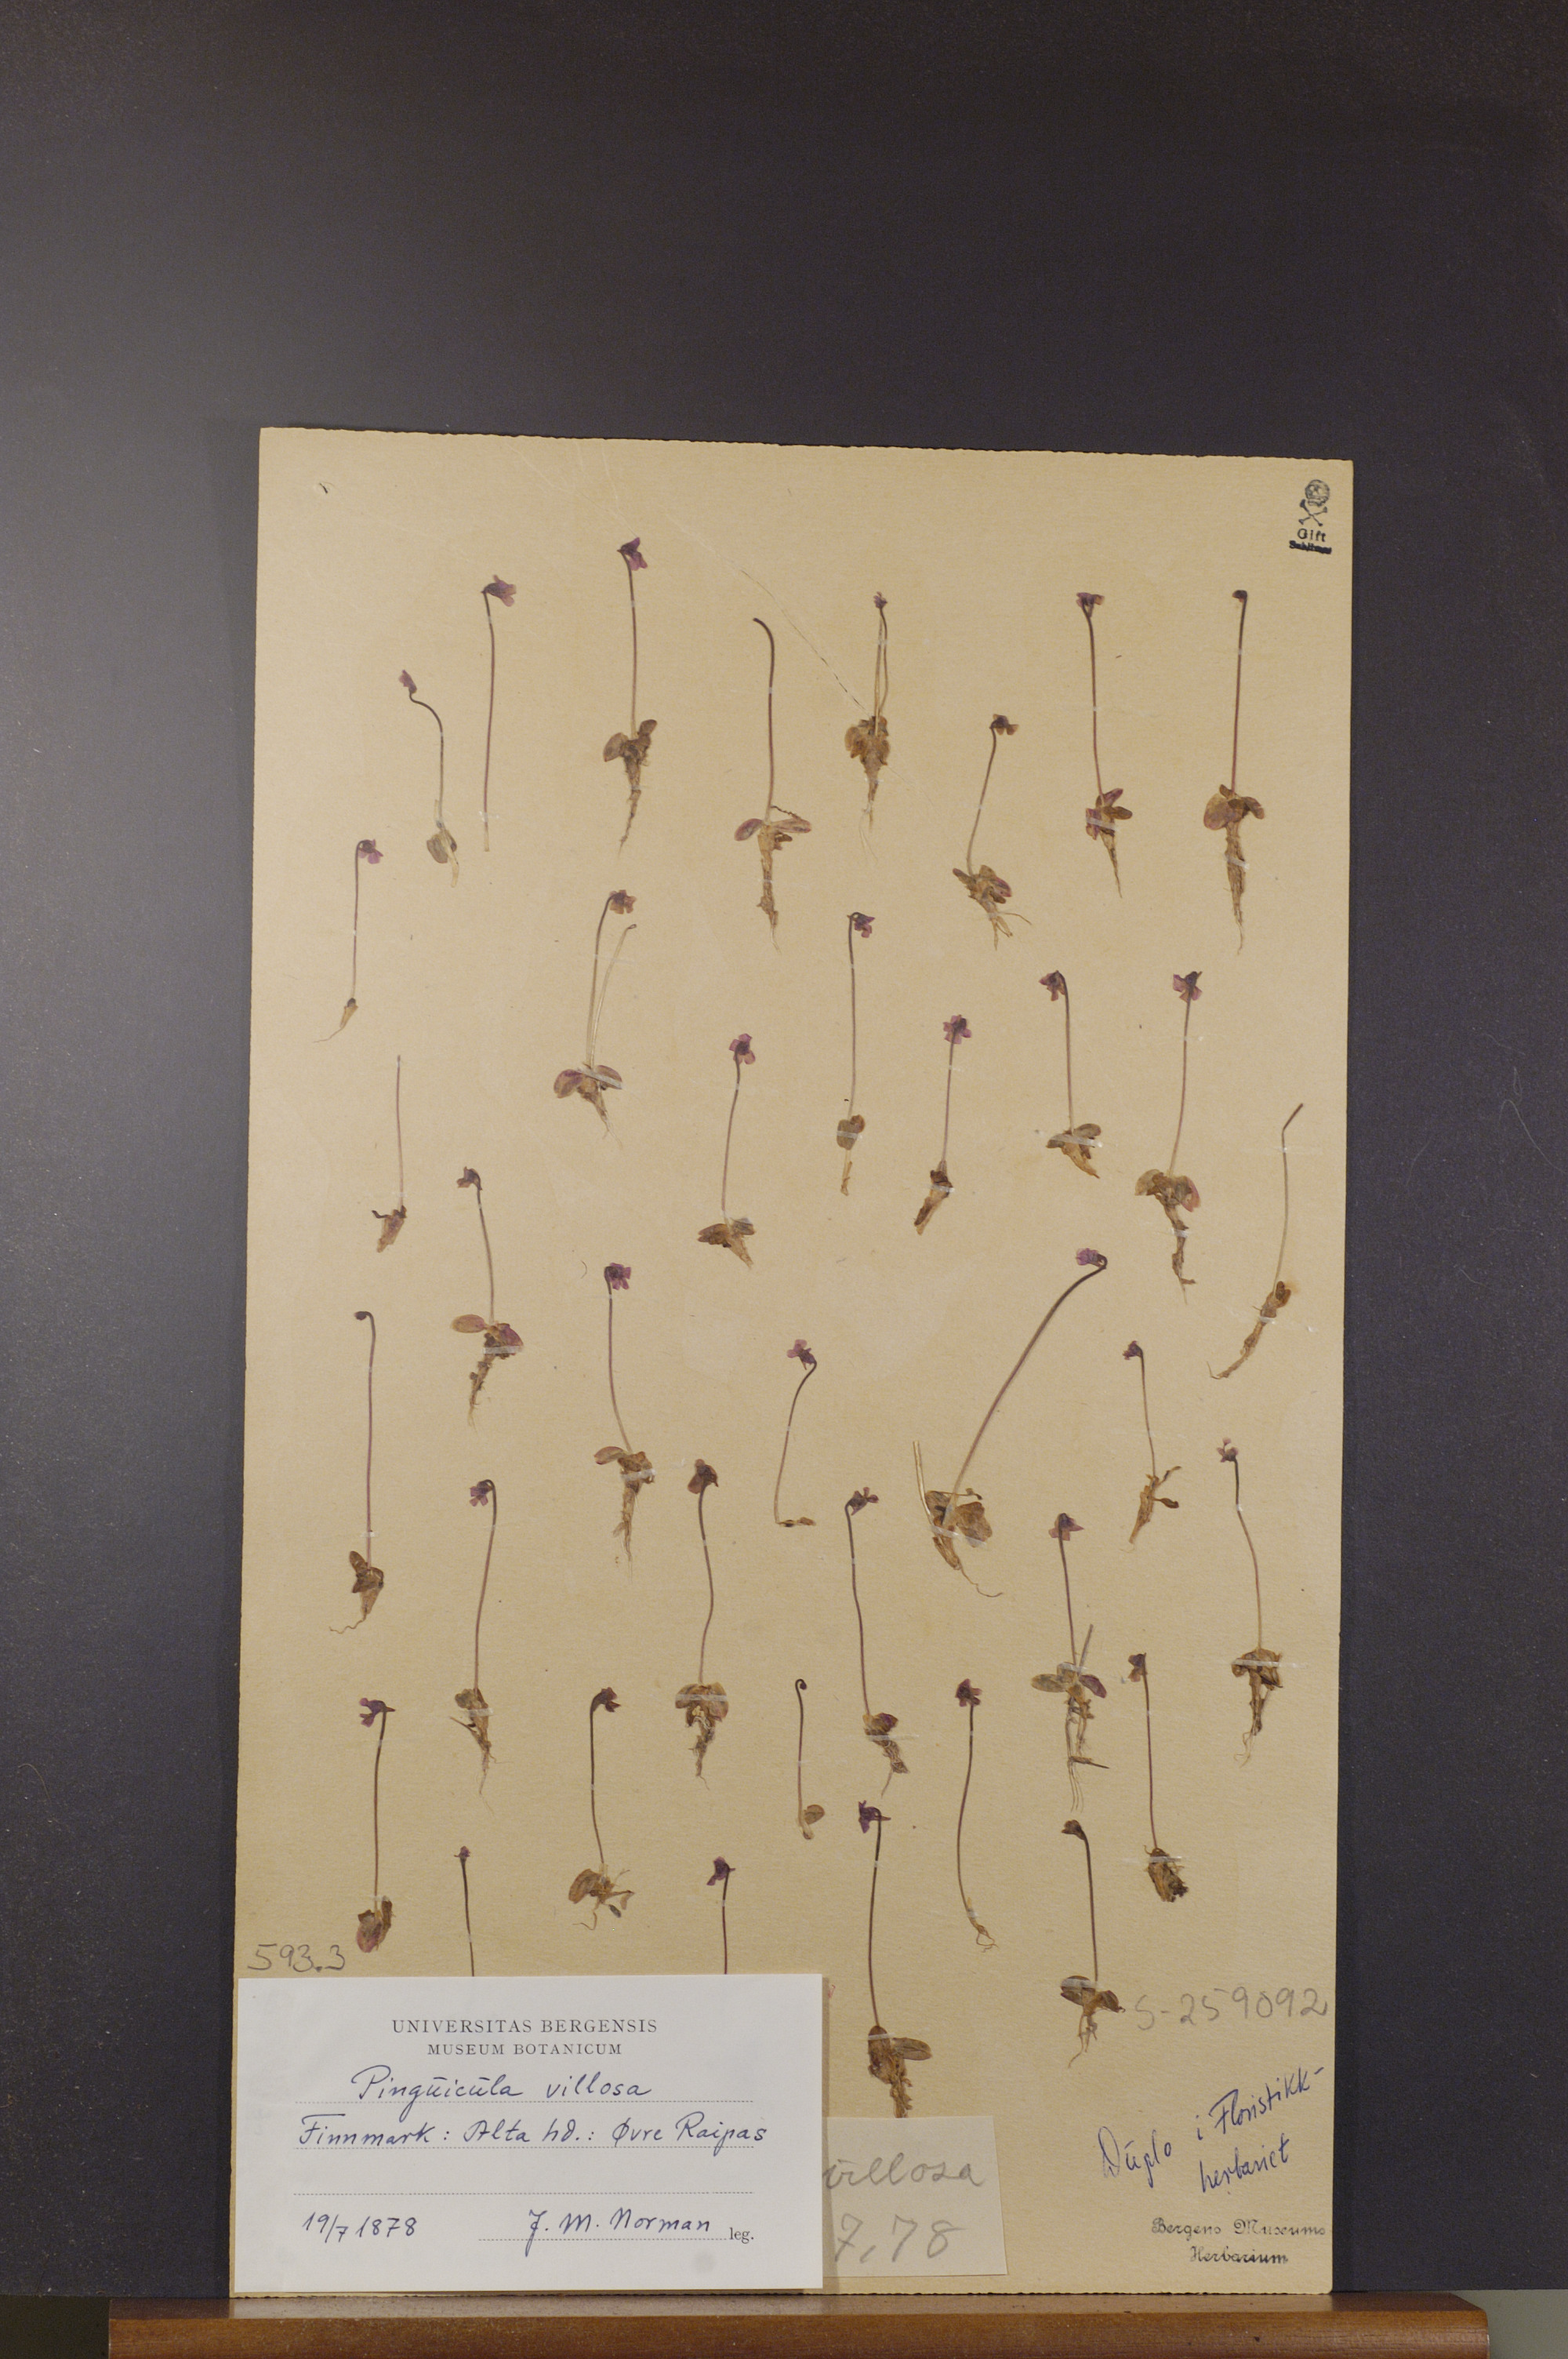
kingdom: Plantae
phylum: Tracheophyta
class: Magnoliopsida
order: Lamiales
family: Lentibulariaceae
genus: Pinguicula
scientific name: Pinguicula villosa
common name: Hairy butterwort
